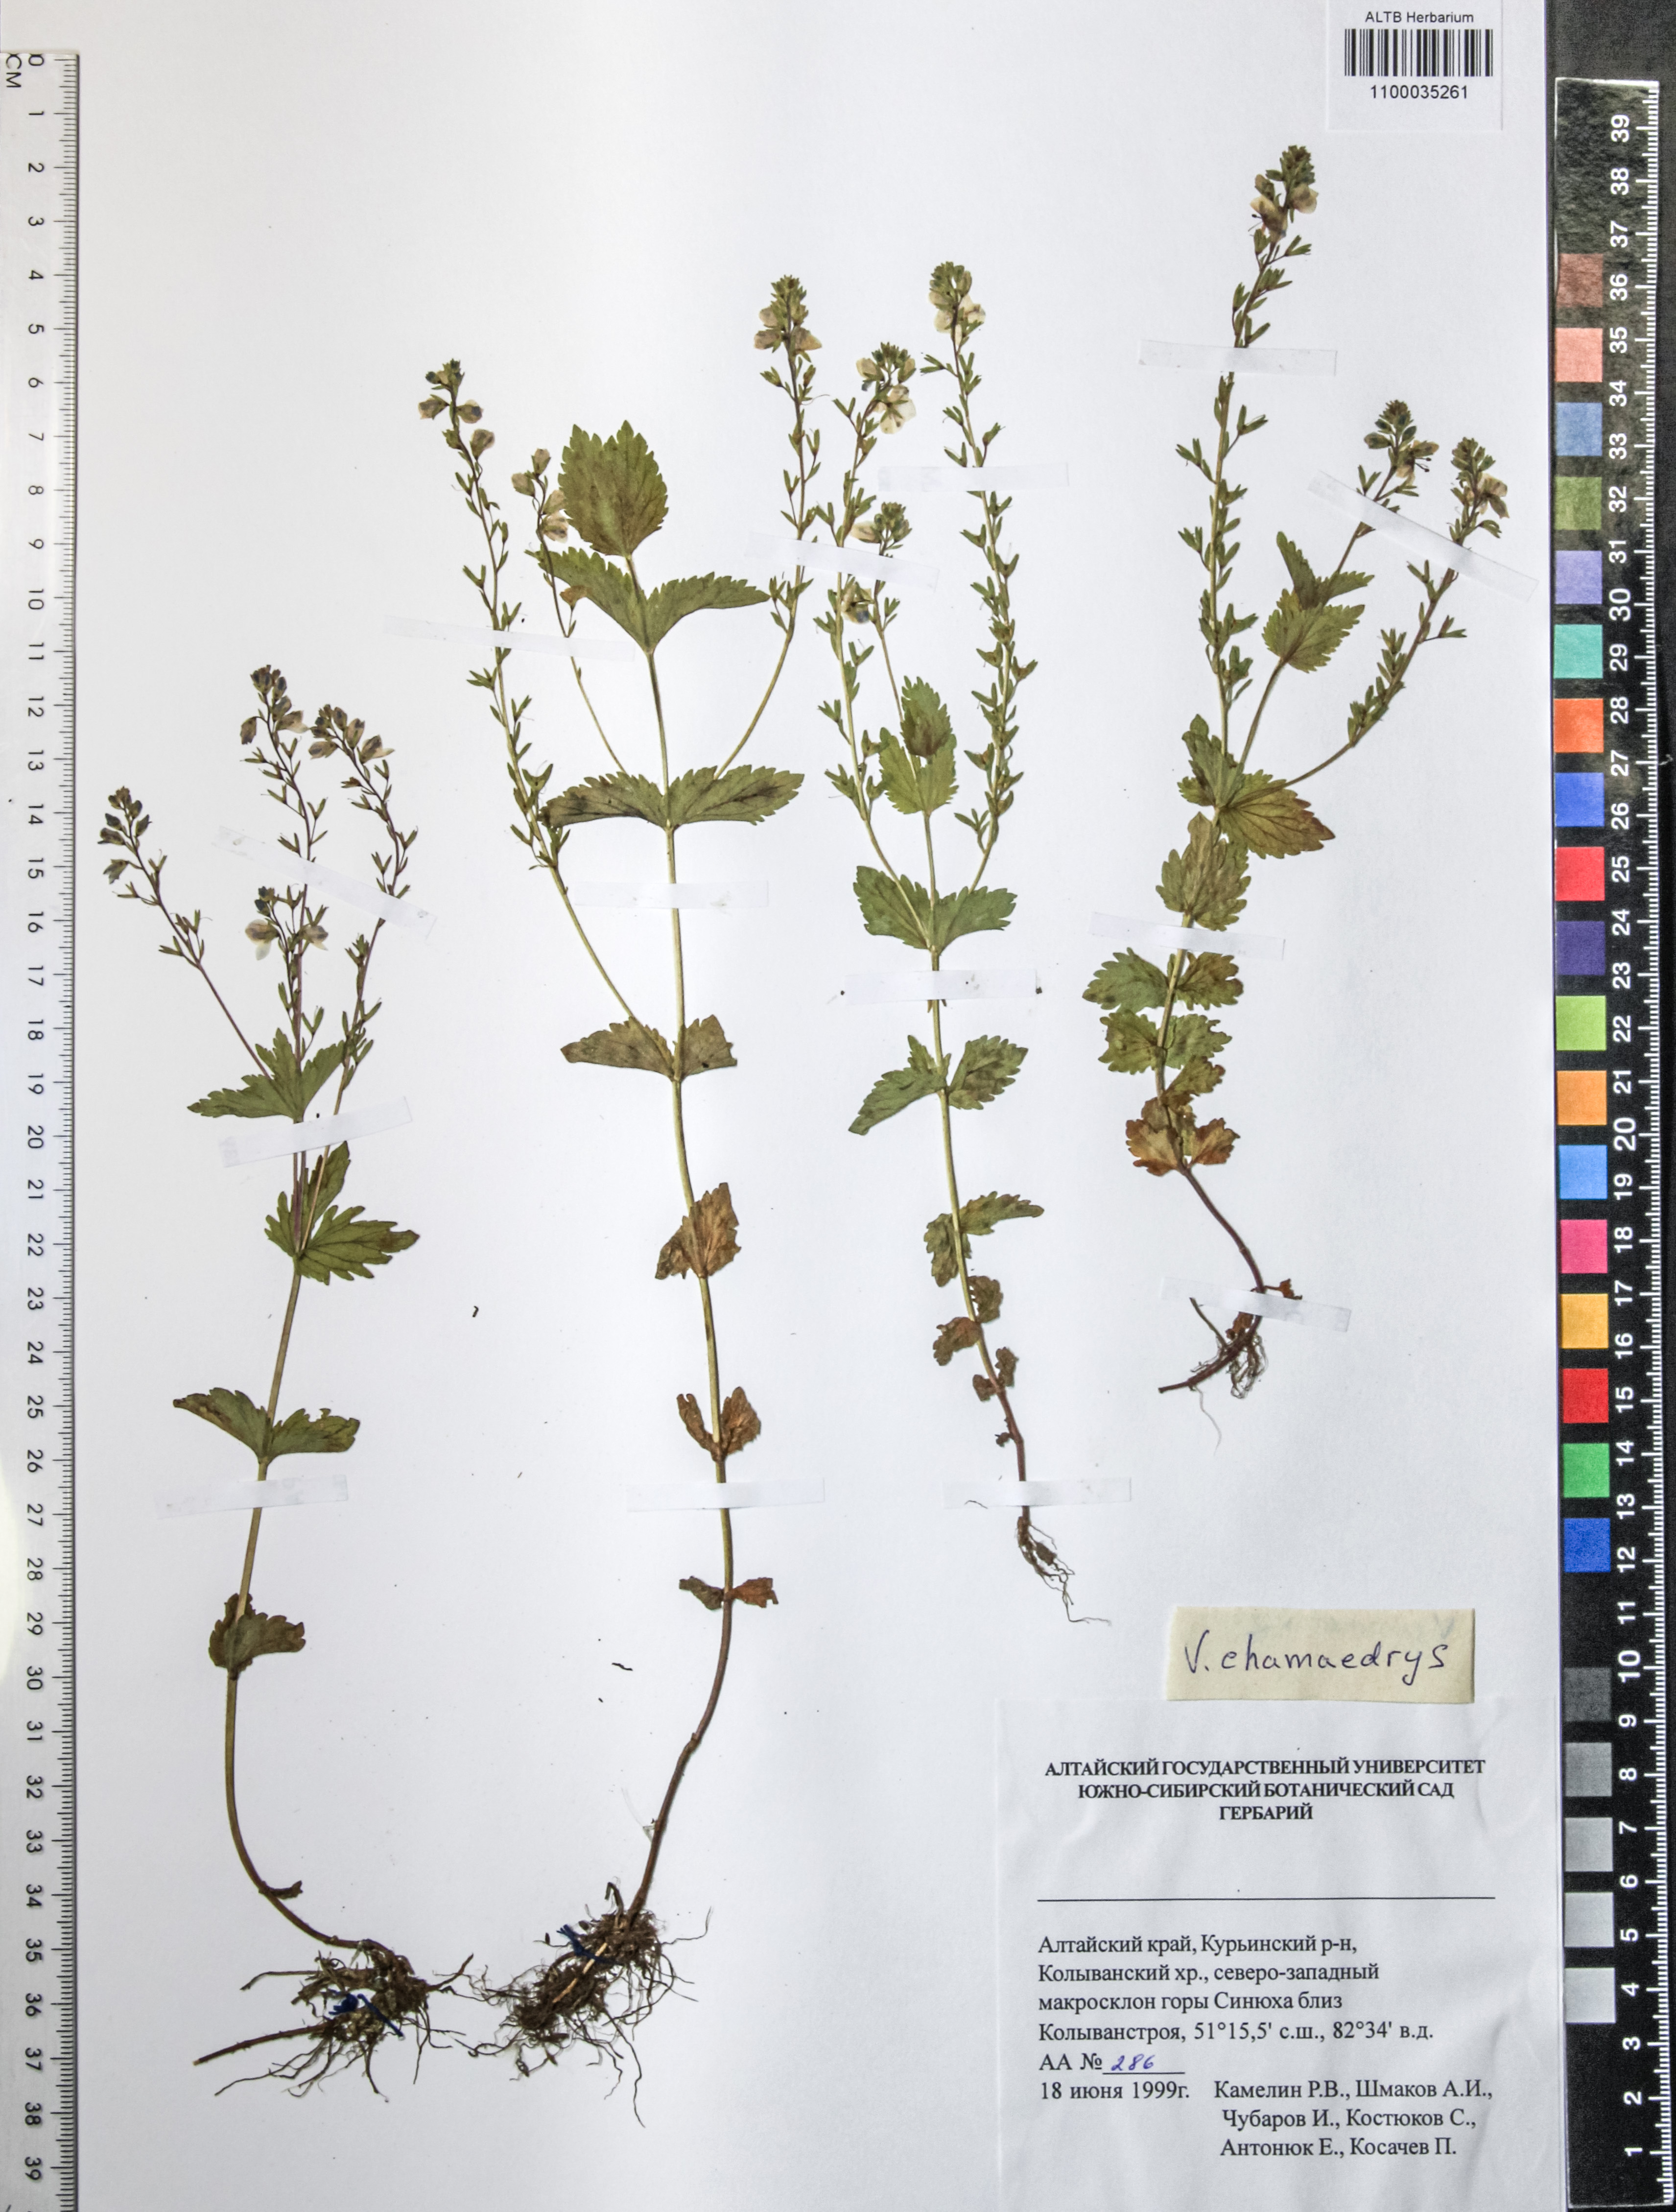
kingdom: Plantae
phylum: Tracheophyta
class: Magnoliopsida
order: Lamiales
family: Plantaginaceae
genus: Veronica
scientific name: Veronica chamaedrys
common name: Germander speedwell
